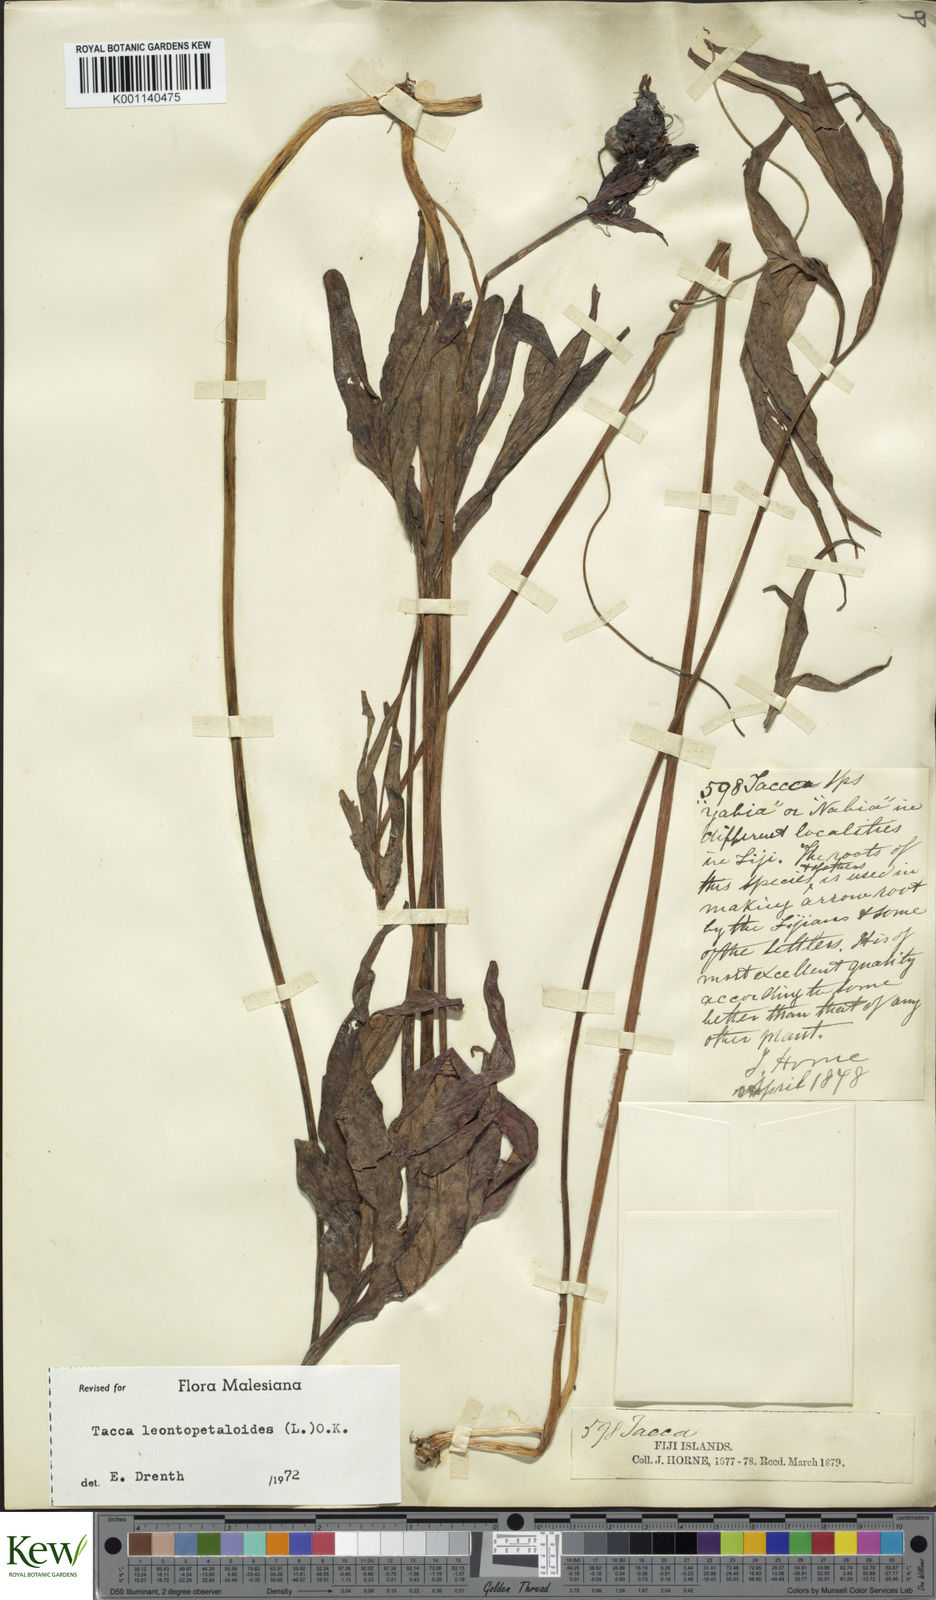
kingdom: Plantae
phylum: Tracheophyta
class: Liliopsida
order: Dioscoreales
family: Dioscoreaceae
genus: Tacca
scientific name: Tacca leontopetaloides
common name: Arrowroot
